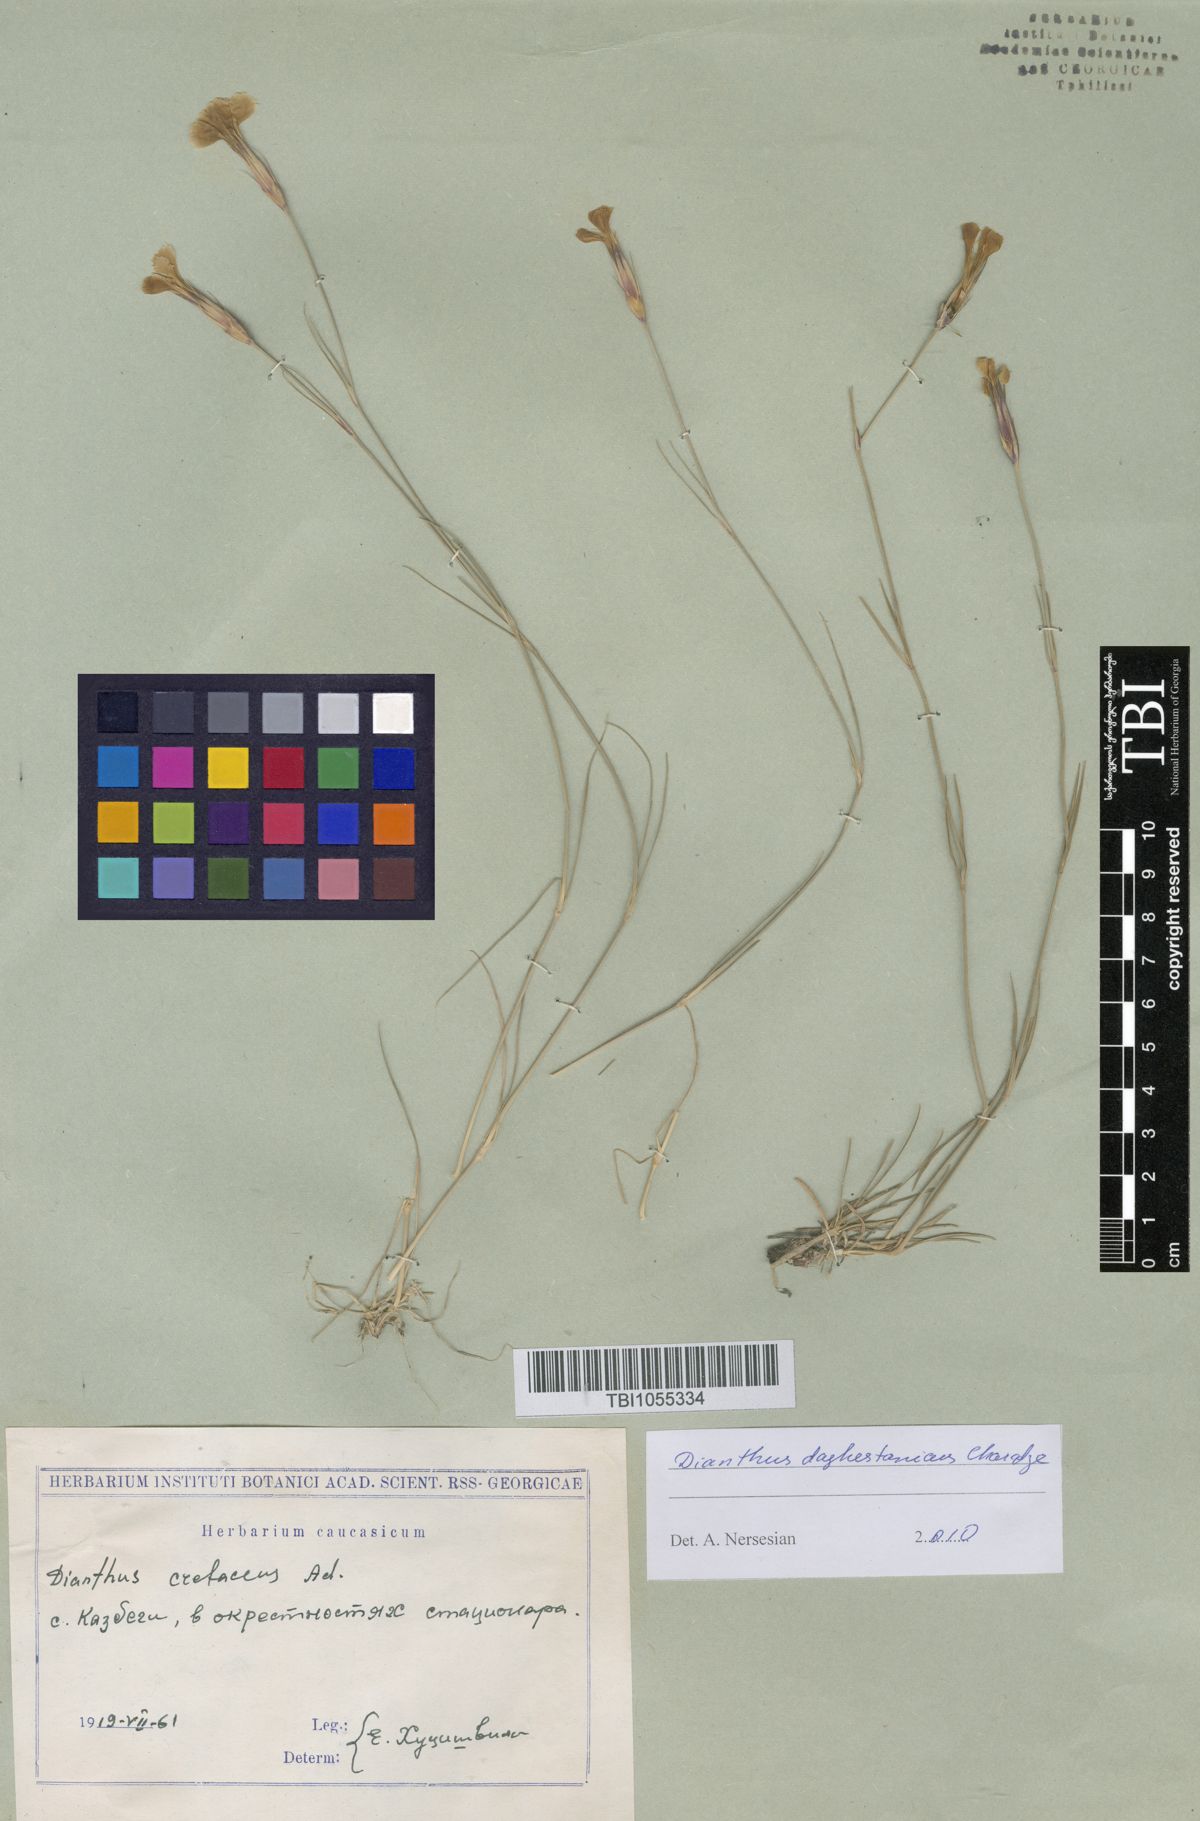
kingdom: Plantae
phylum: Tracheophyta
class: Magnoliopsida
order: Caryophyllales
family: Caryophyllaceae
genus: Dianthus
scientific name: Dianthus cretaceus
